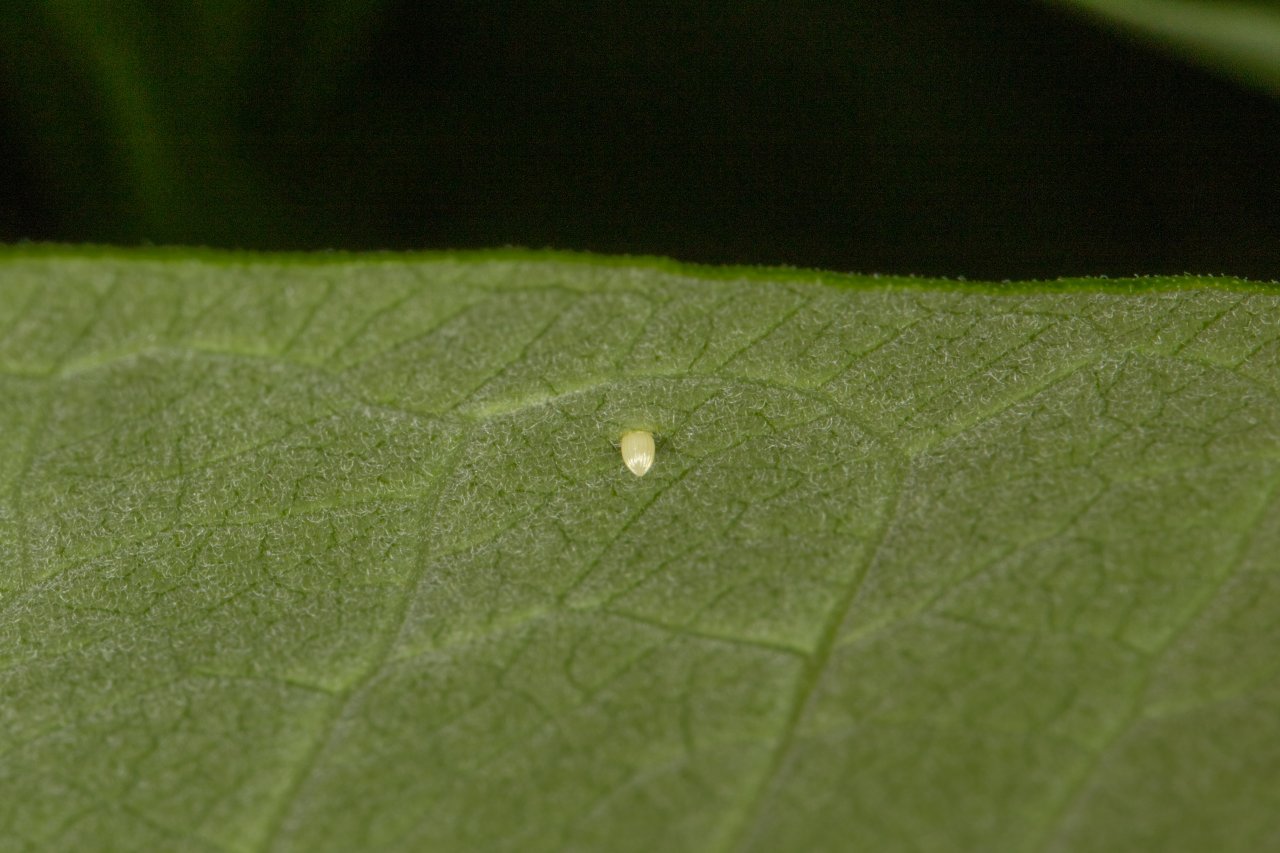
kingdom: Animalia
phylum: Arthropoda
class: Insecta
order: Lepidoptera
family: Nymphalidae
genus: Danaus
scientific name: Danaus plexippus
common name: Monarch
